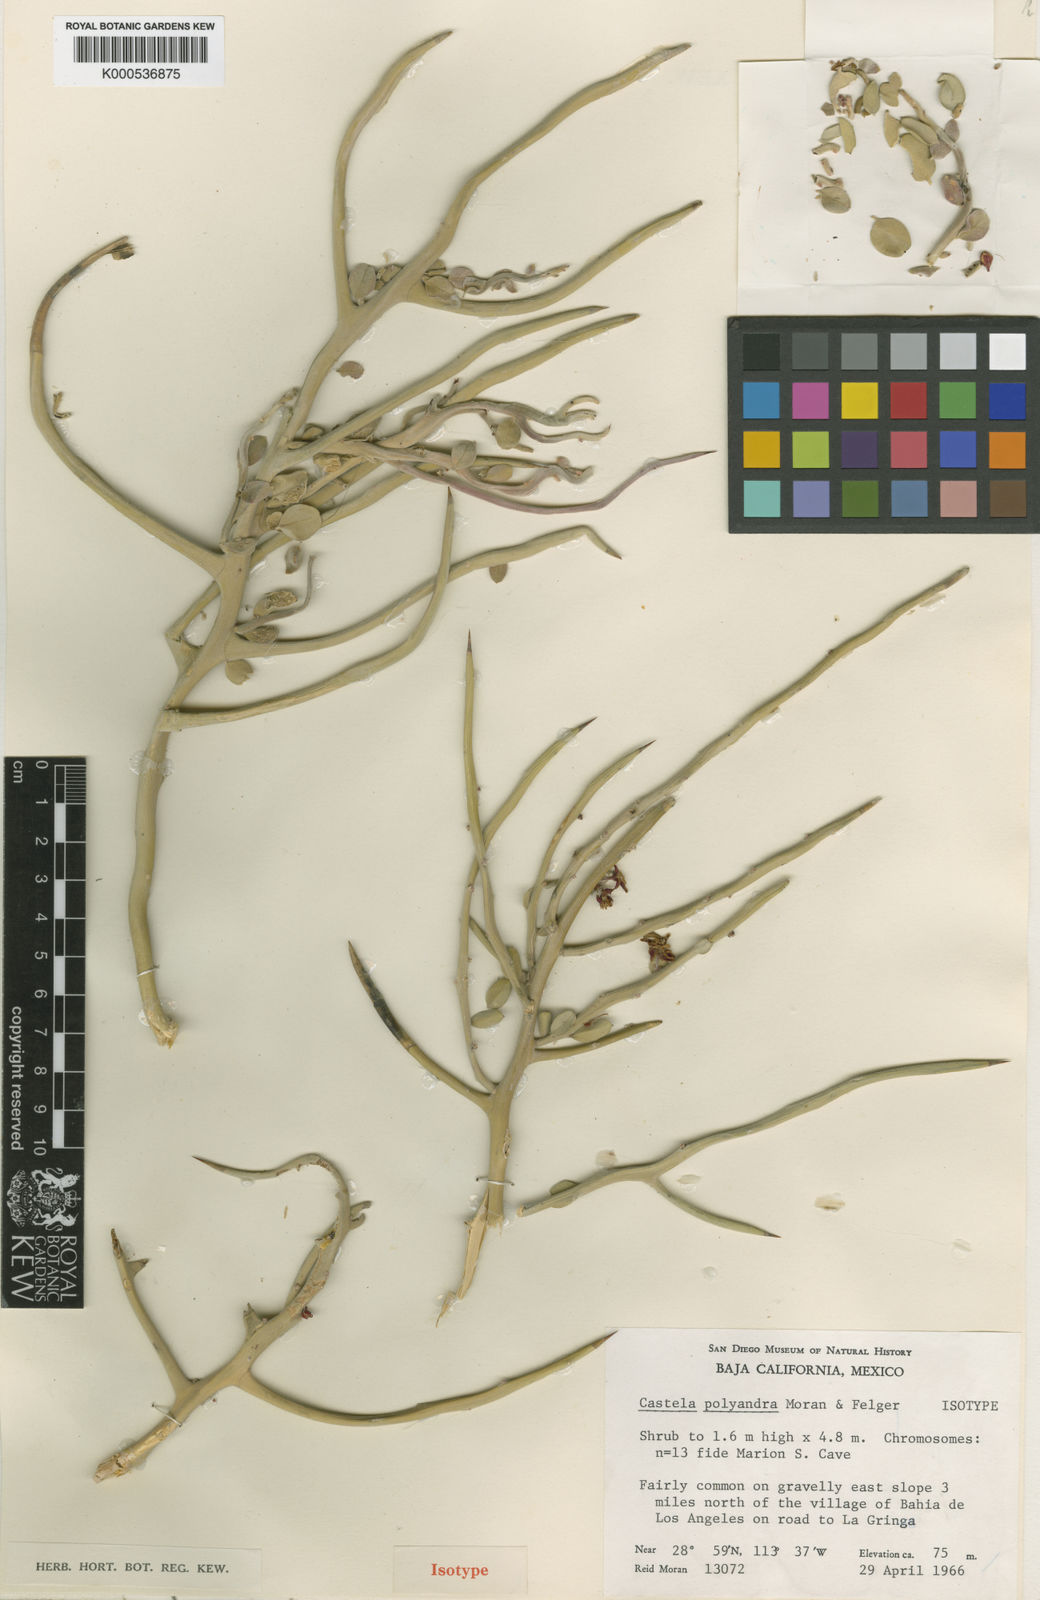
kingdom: Plantae
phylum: Tracheophyta
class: Magnoliopsida
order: Sapindales
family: Simaroubaceae
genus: Castela
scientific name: Castela polyandra
